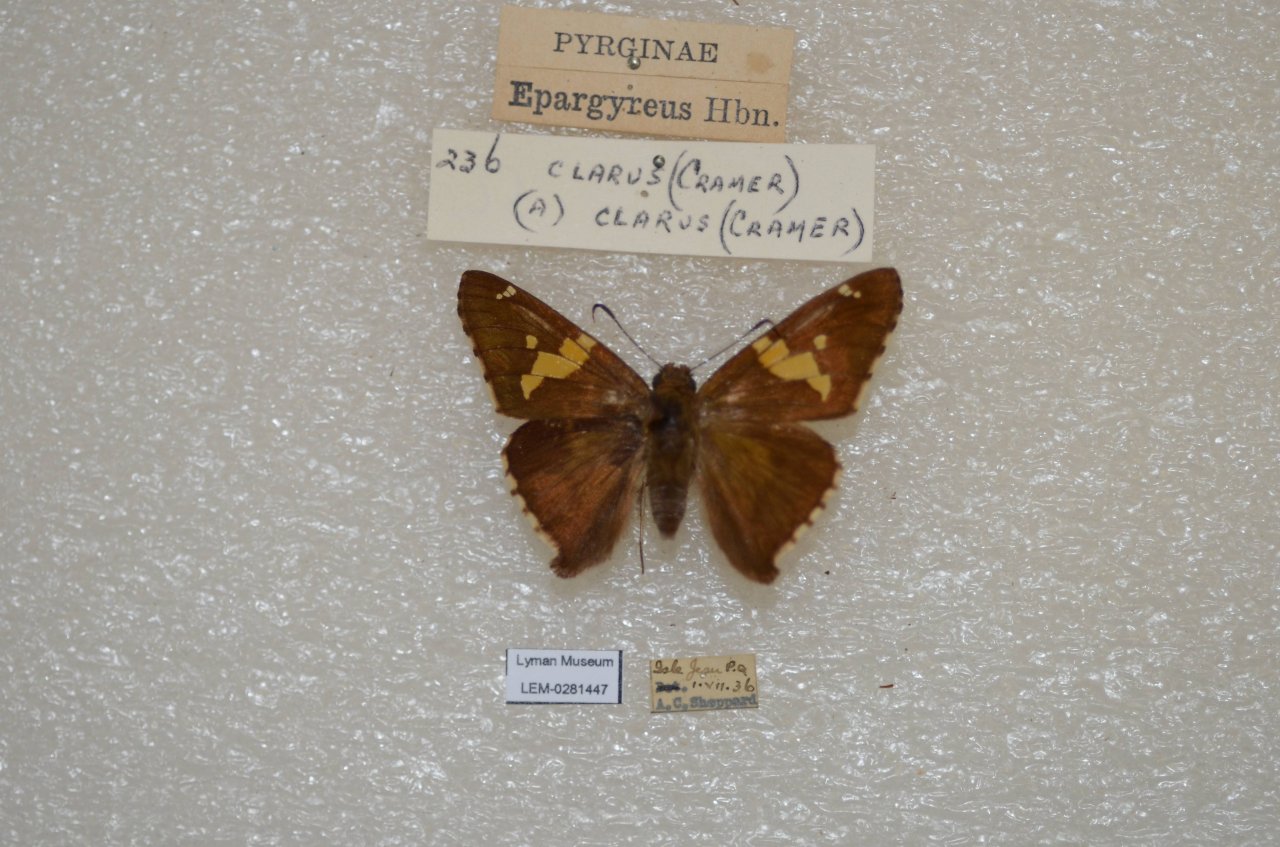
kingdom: Animalia
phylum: Arthropoda
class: Insecta
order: Lepidoptera
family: Hesperiidae
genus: Epargyreus
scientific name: Epargyreus clarus
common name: Silver-spotted Skipper
